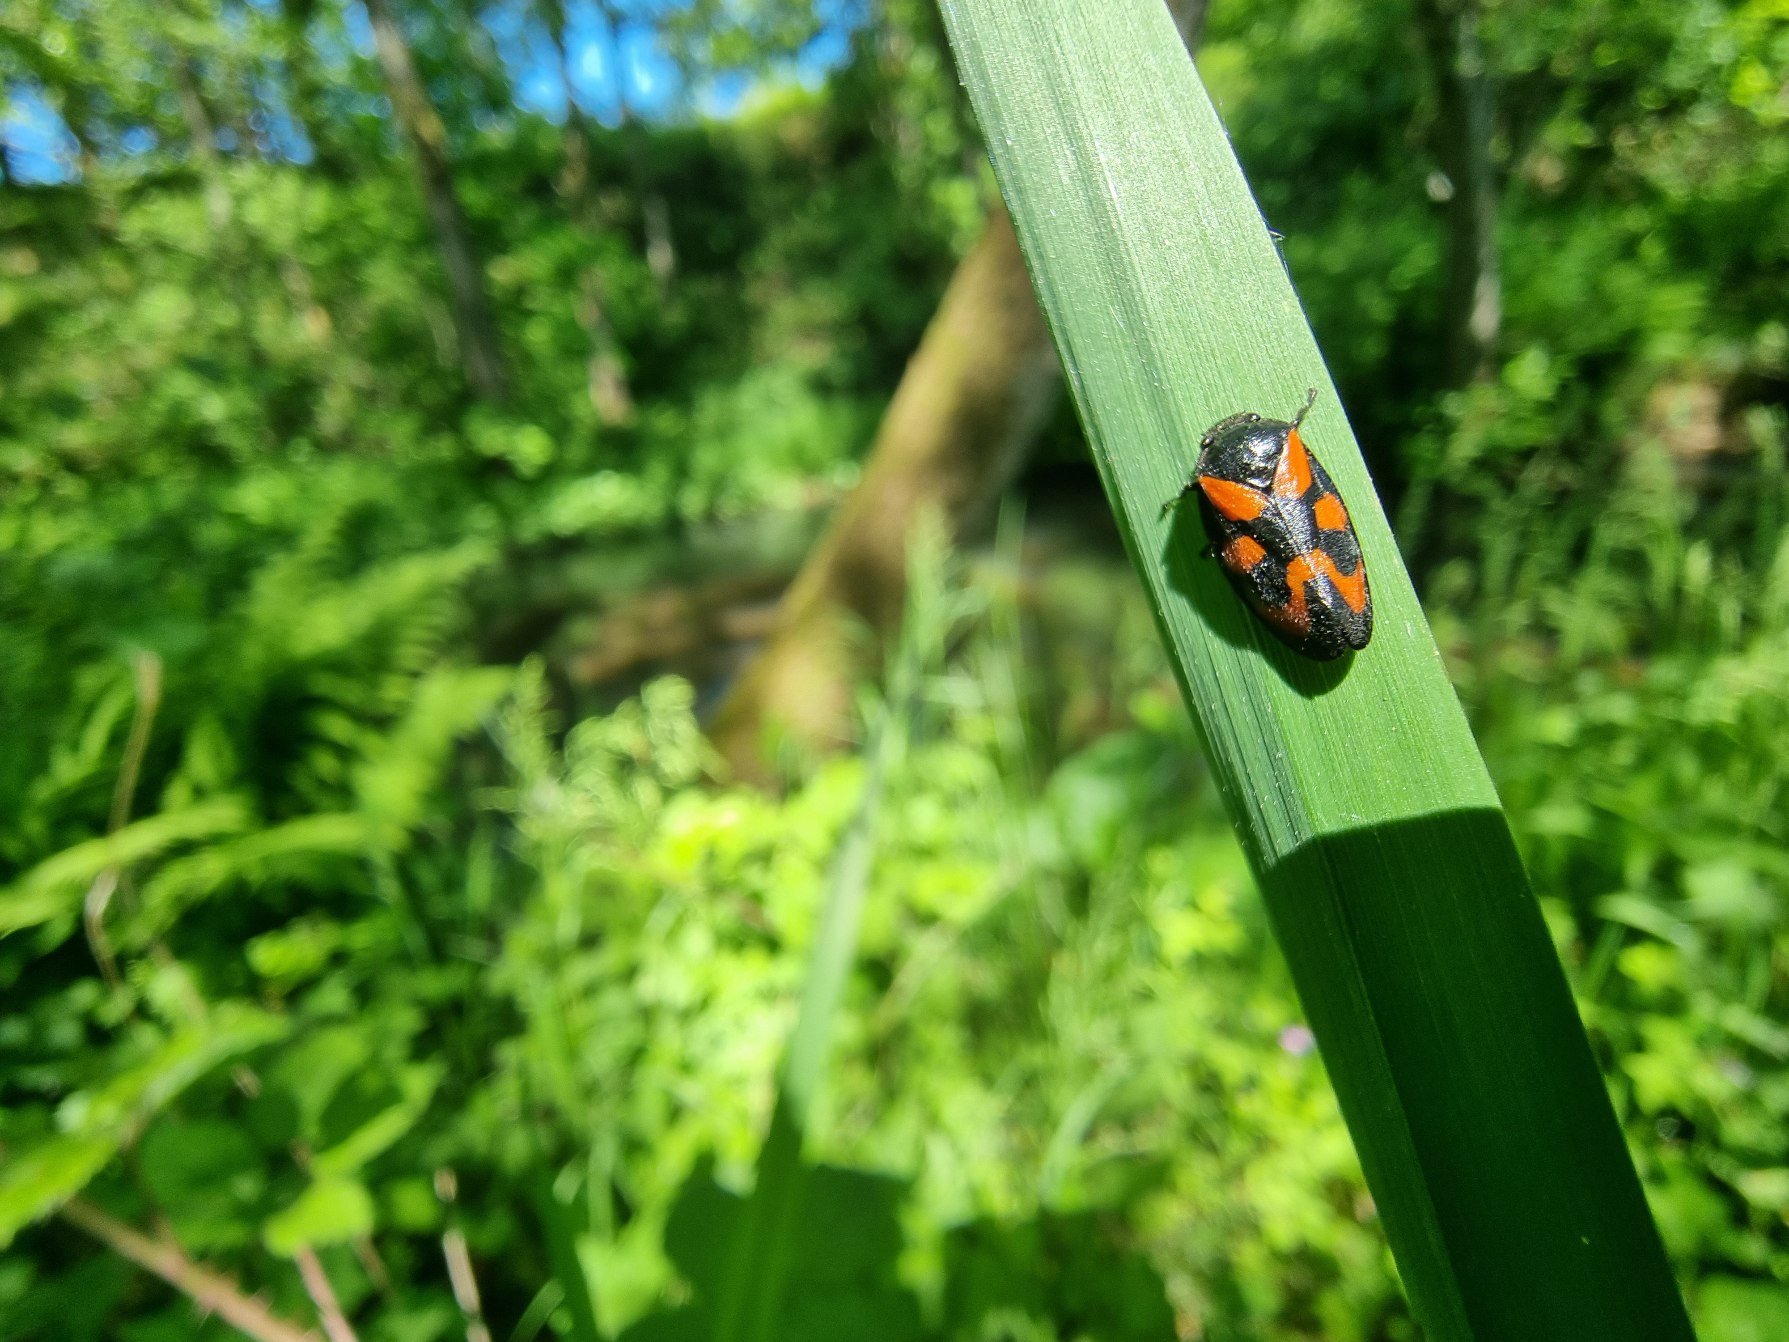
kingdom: Animalia
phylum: Arthropoda
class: Insecta
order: Hemiptera
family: Cercopidae
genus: Cercopis
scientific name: Cercopis vulnerata
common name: Blodcikade
